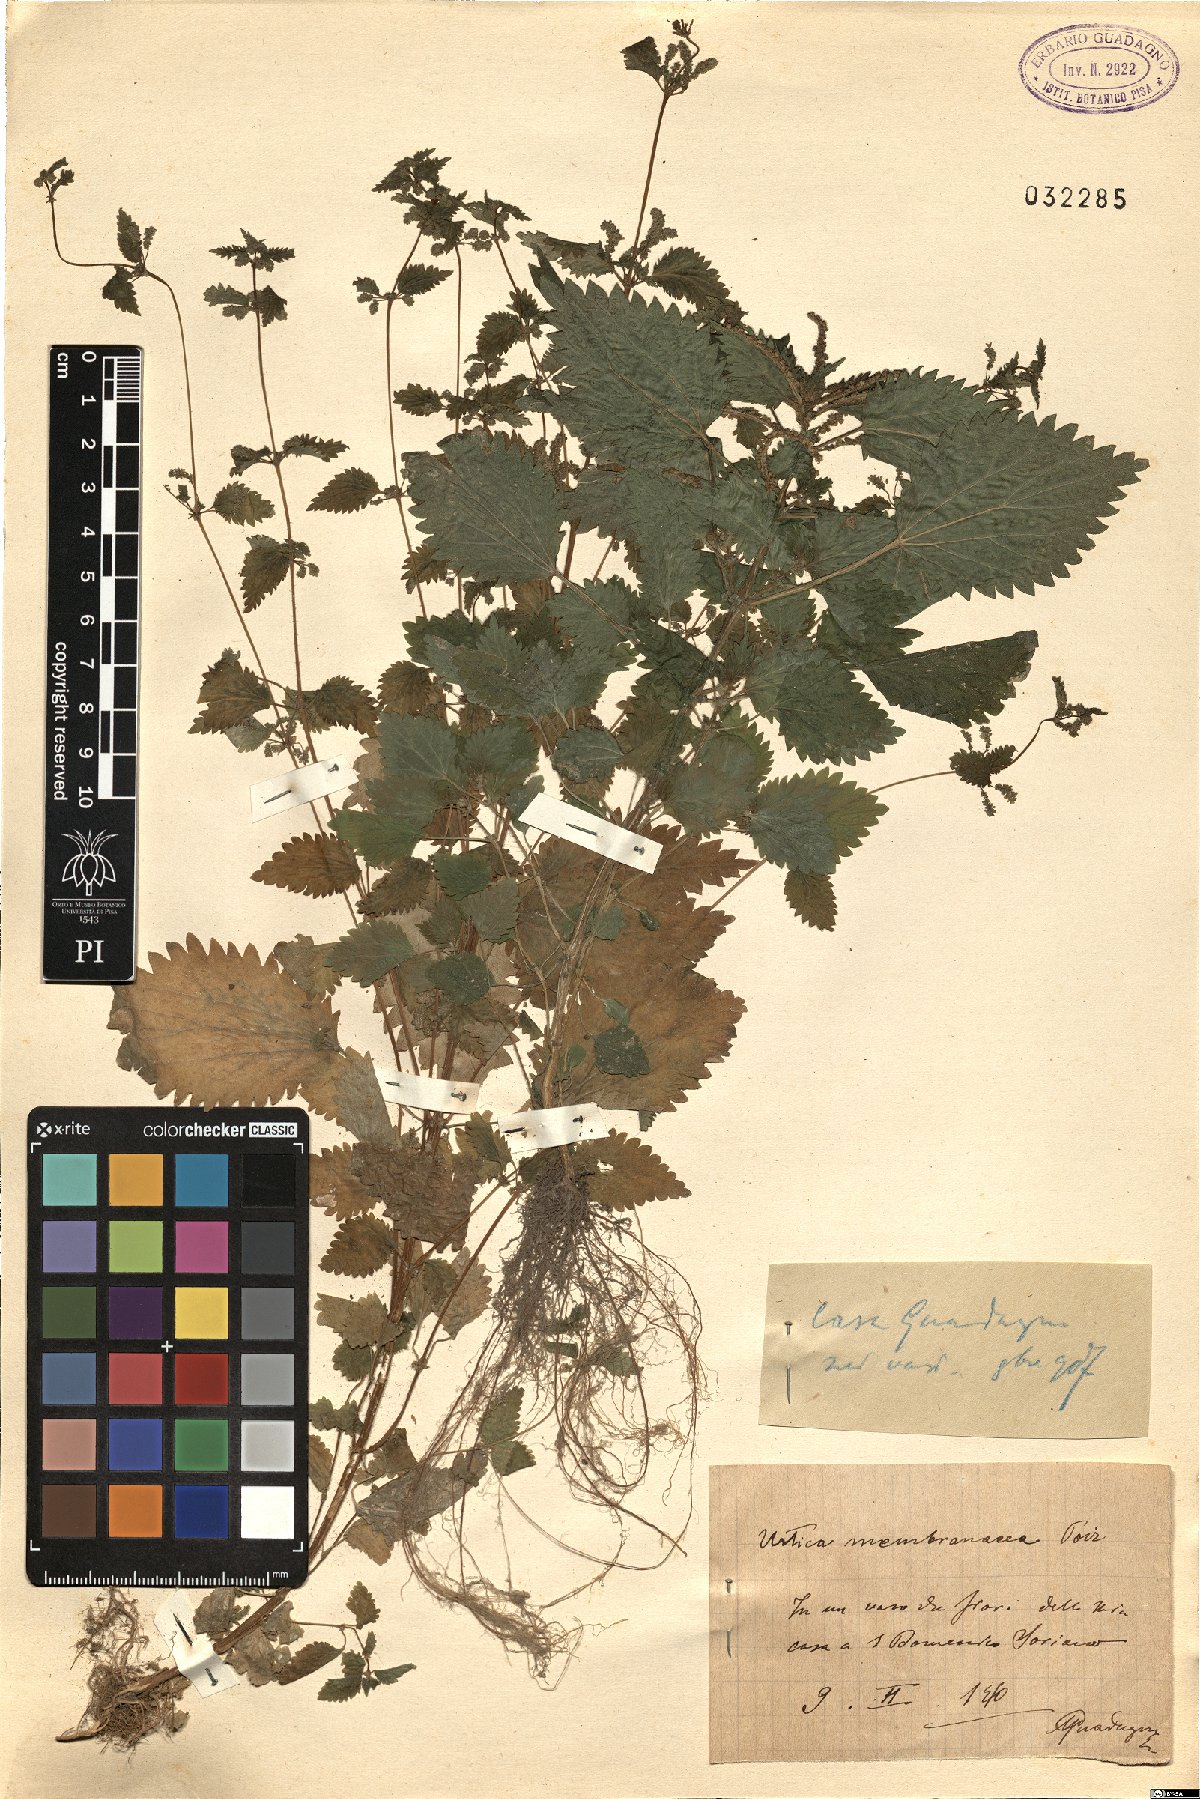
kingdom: Plantae
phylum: Tracheophyta
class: Magnoliopsida
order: Rosales
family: Urticaceae
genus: Urtica
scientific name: Urtica membranacea
